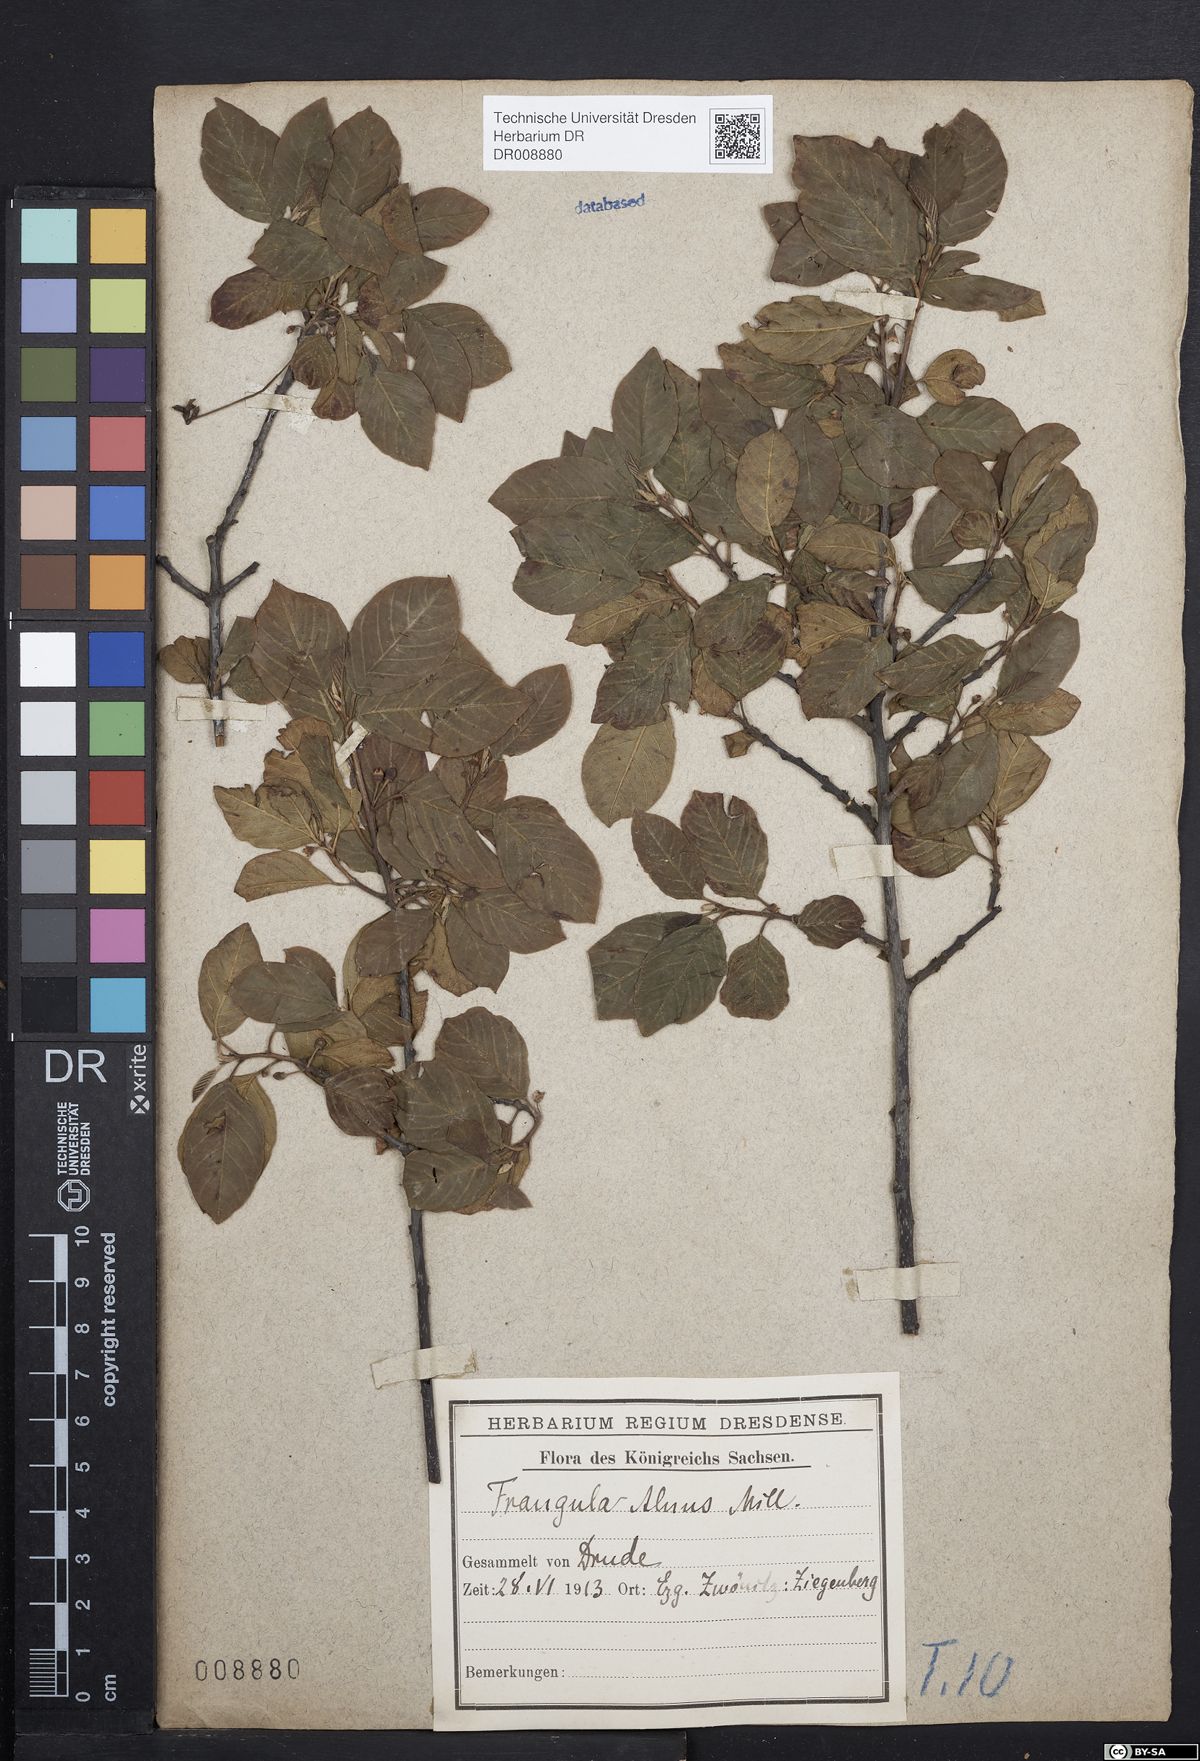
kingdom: Plantae
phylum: Tracheophyta
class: Magnoliopsida
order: Rosales
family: Rhamnaceae
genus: Frangula
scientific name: Frangula alnus
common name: Alder buckthorn
